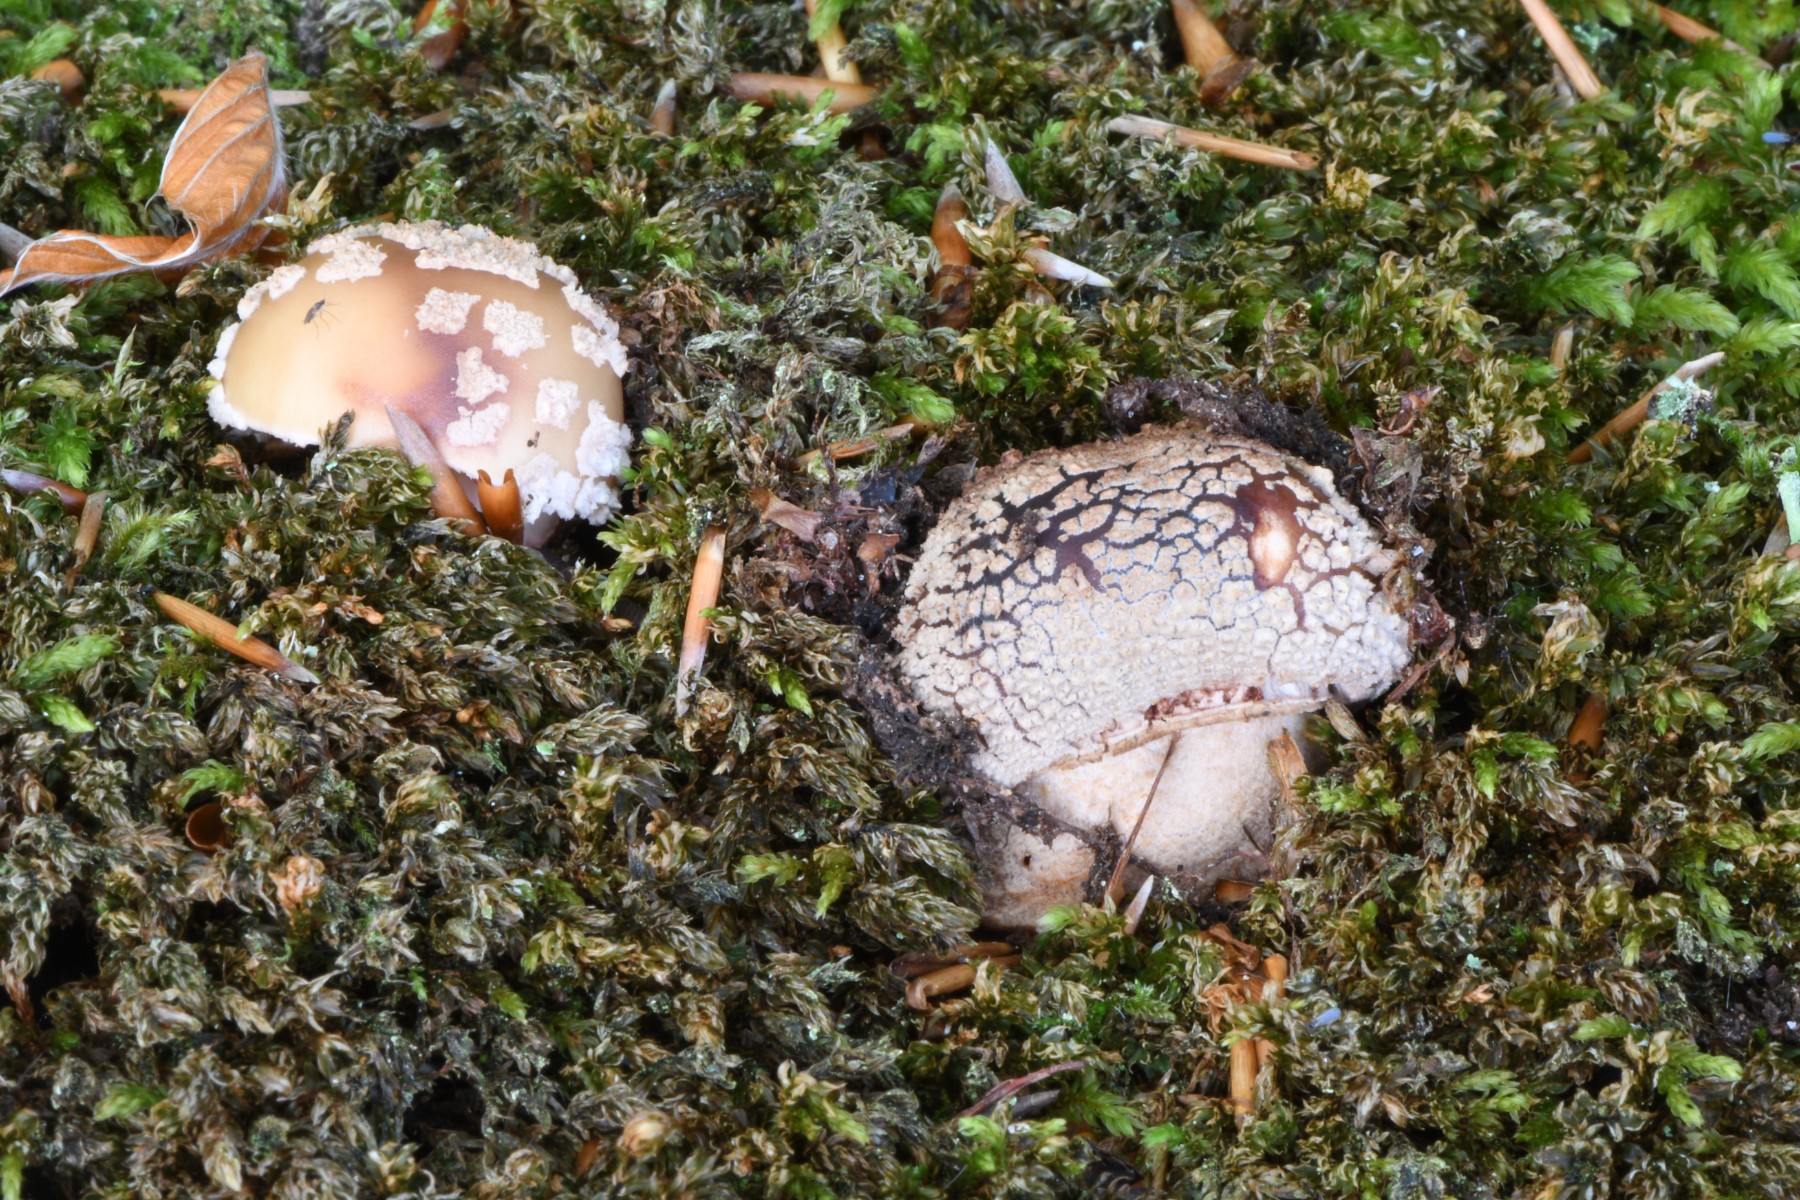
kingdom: Fungi
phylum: Basidiomycota
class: Agaricomycetes
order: Agaricales
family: Amanitaceae
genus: Amanita
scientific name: Amanita rubescens
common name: rødmende fluesvamp
